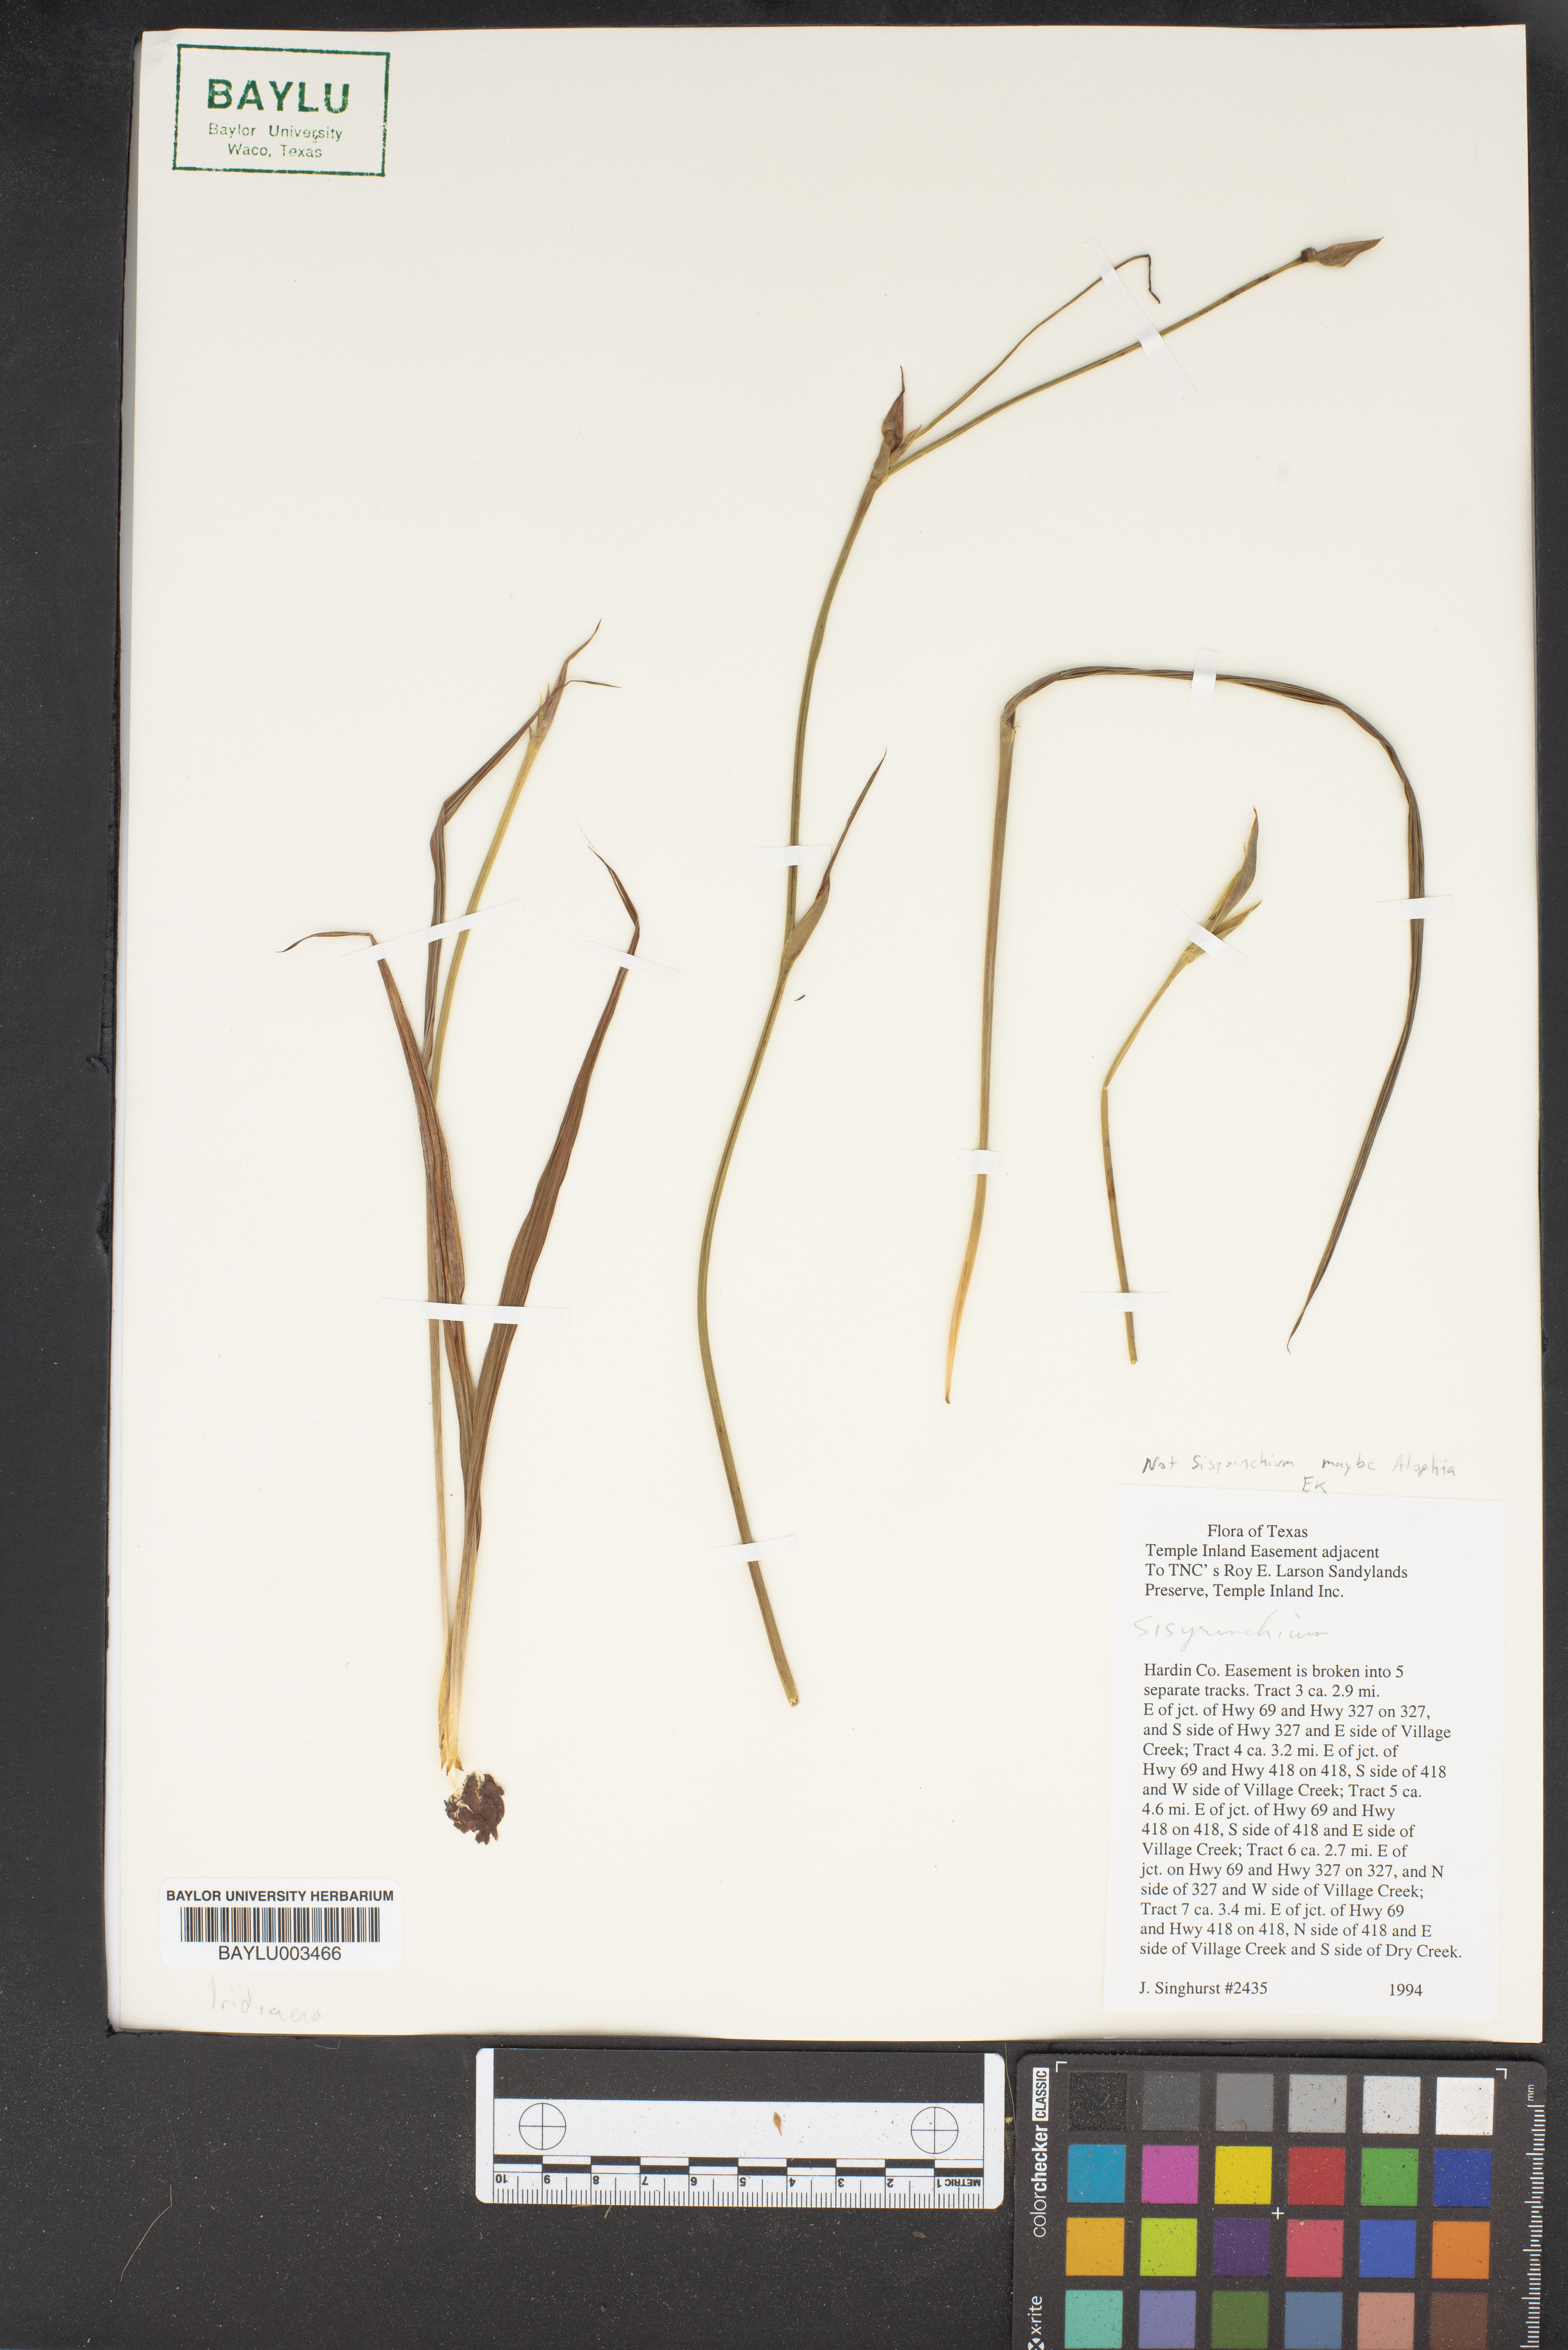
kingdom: Plantae
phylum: Tracheophyta
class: Liliopsida
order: Asparagales
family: Iridaceae
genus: Sisyrinchium
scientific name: Sisyrinchium
